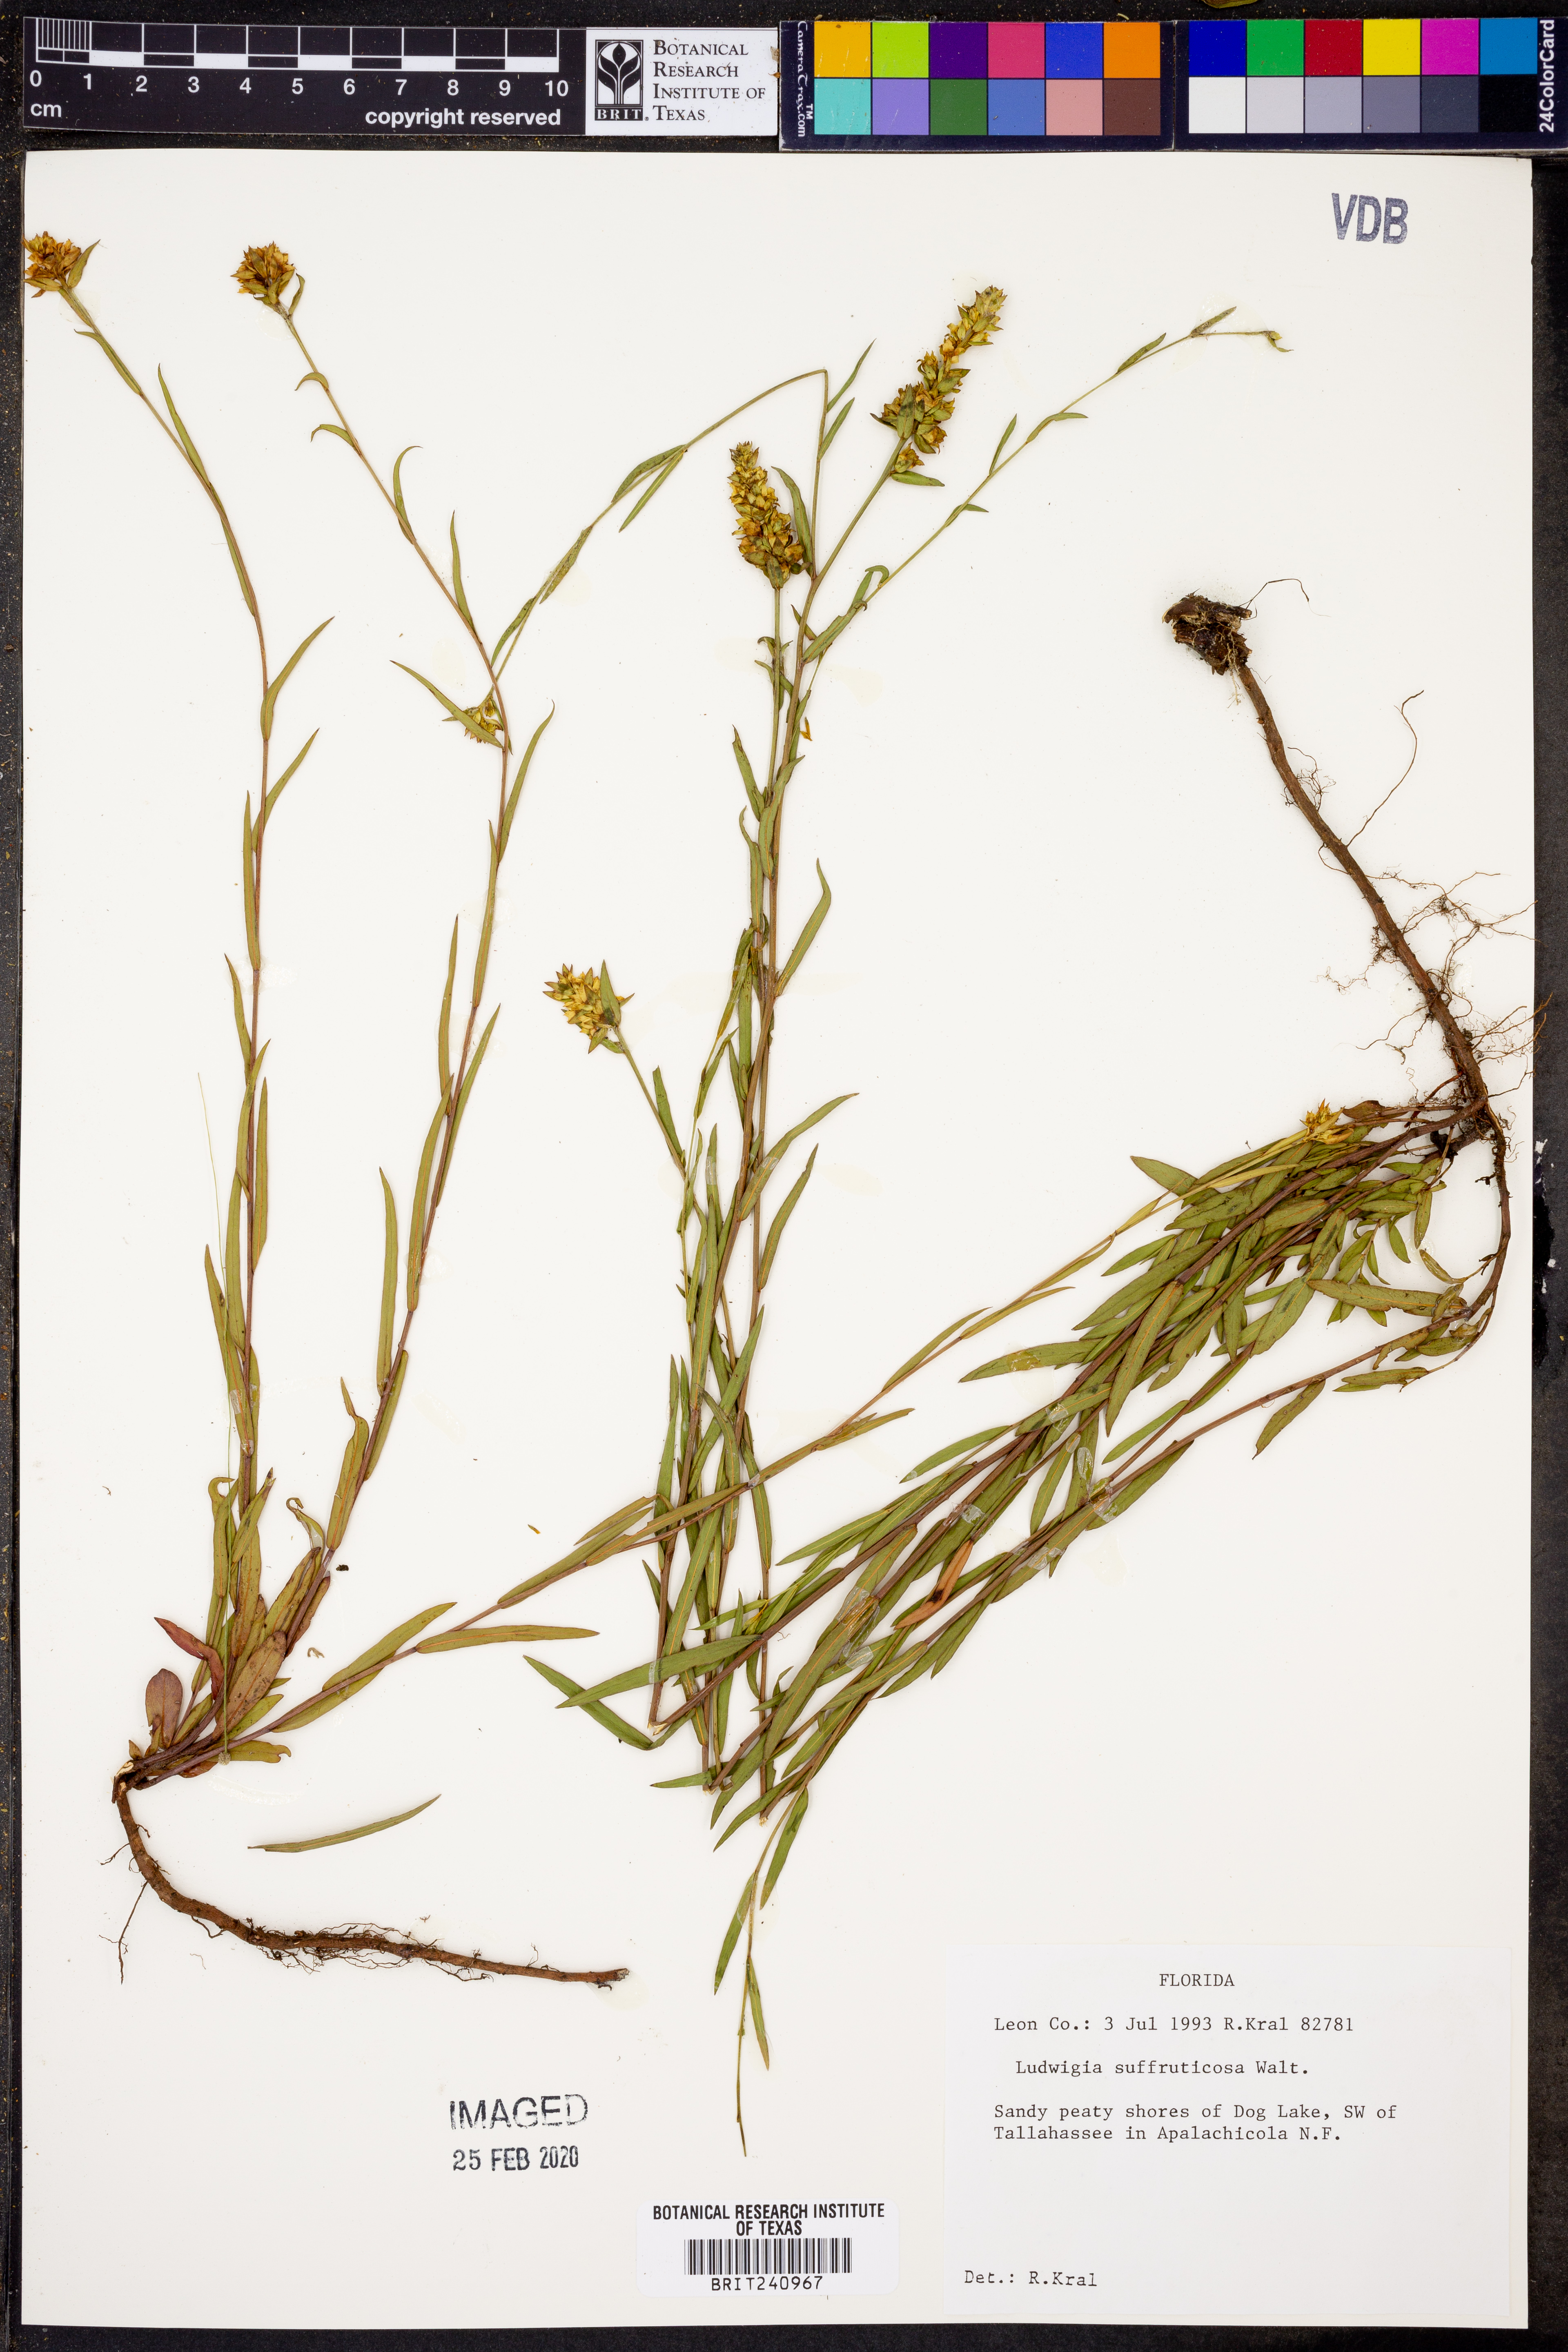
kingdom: Plantae
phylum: Tracheophyta
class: Magnoliopsida
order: Myrtales
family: Onagraceae
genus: Ludwigia
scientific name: Ludwigia suffruticosa
